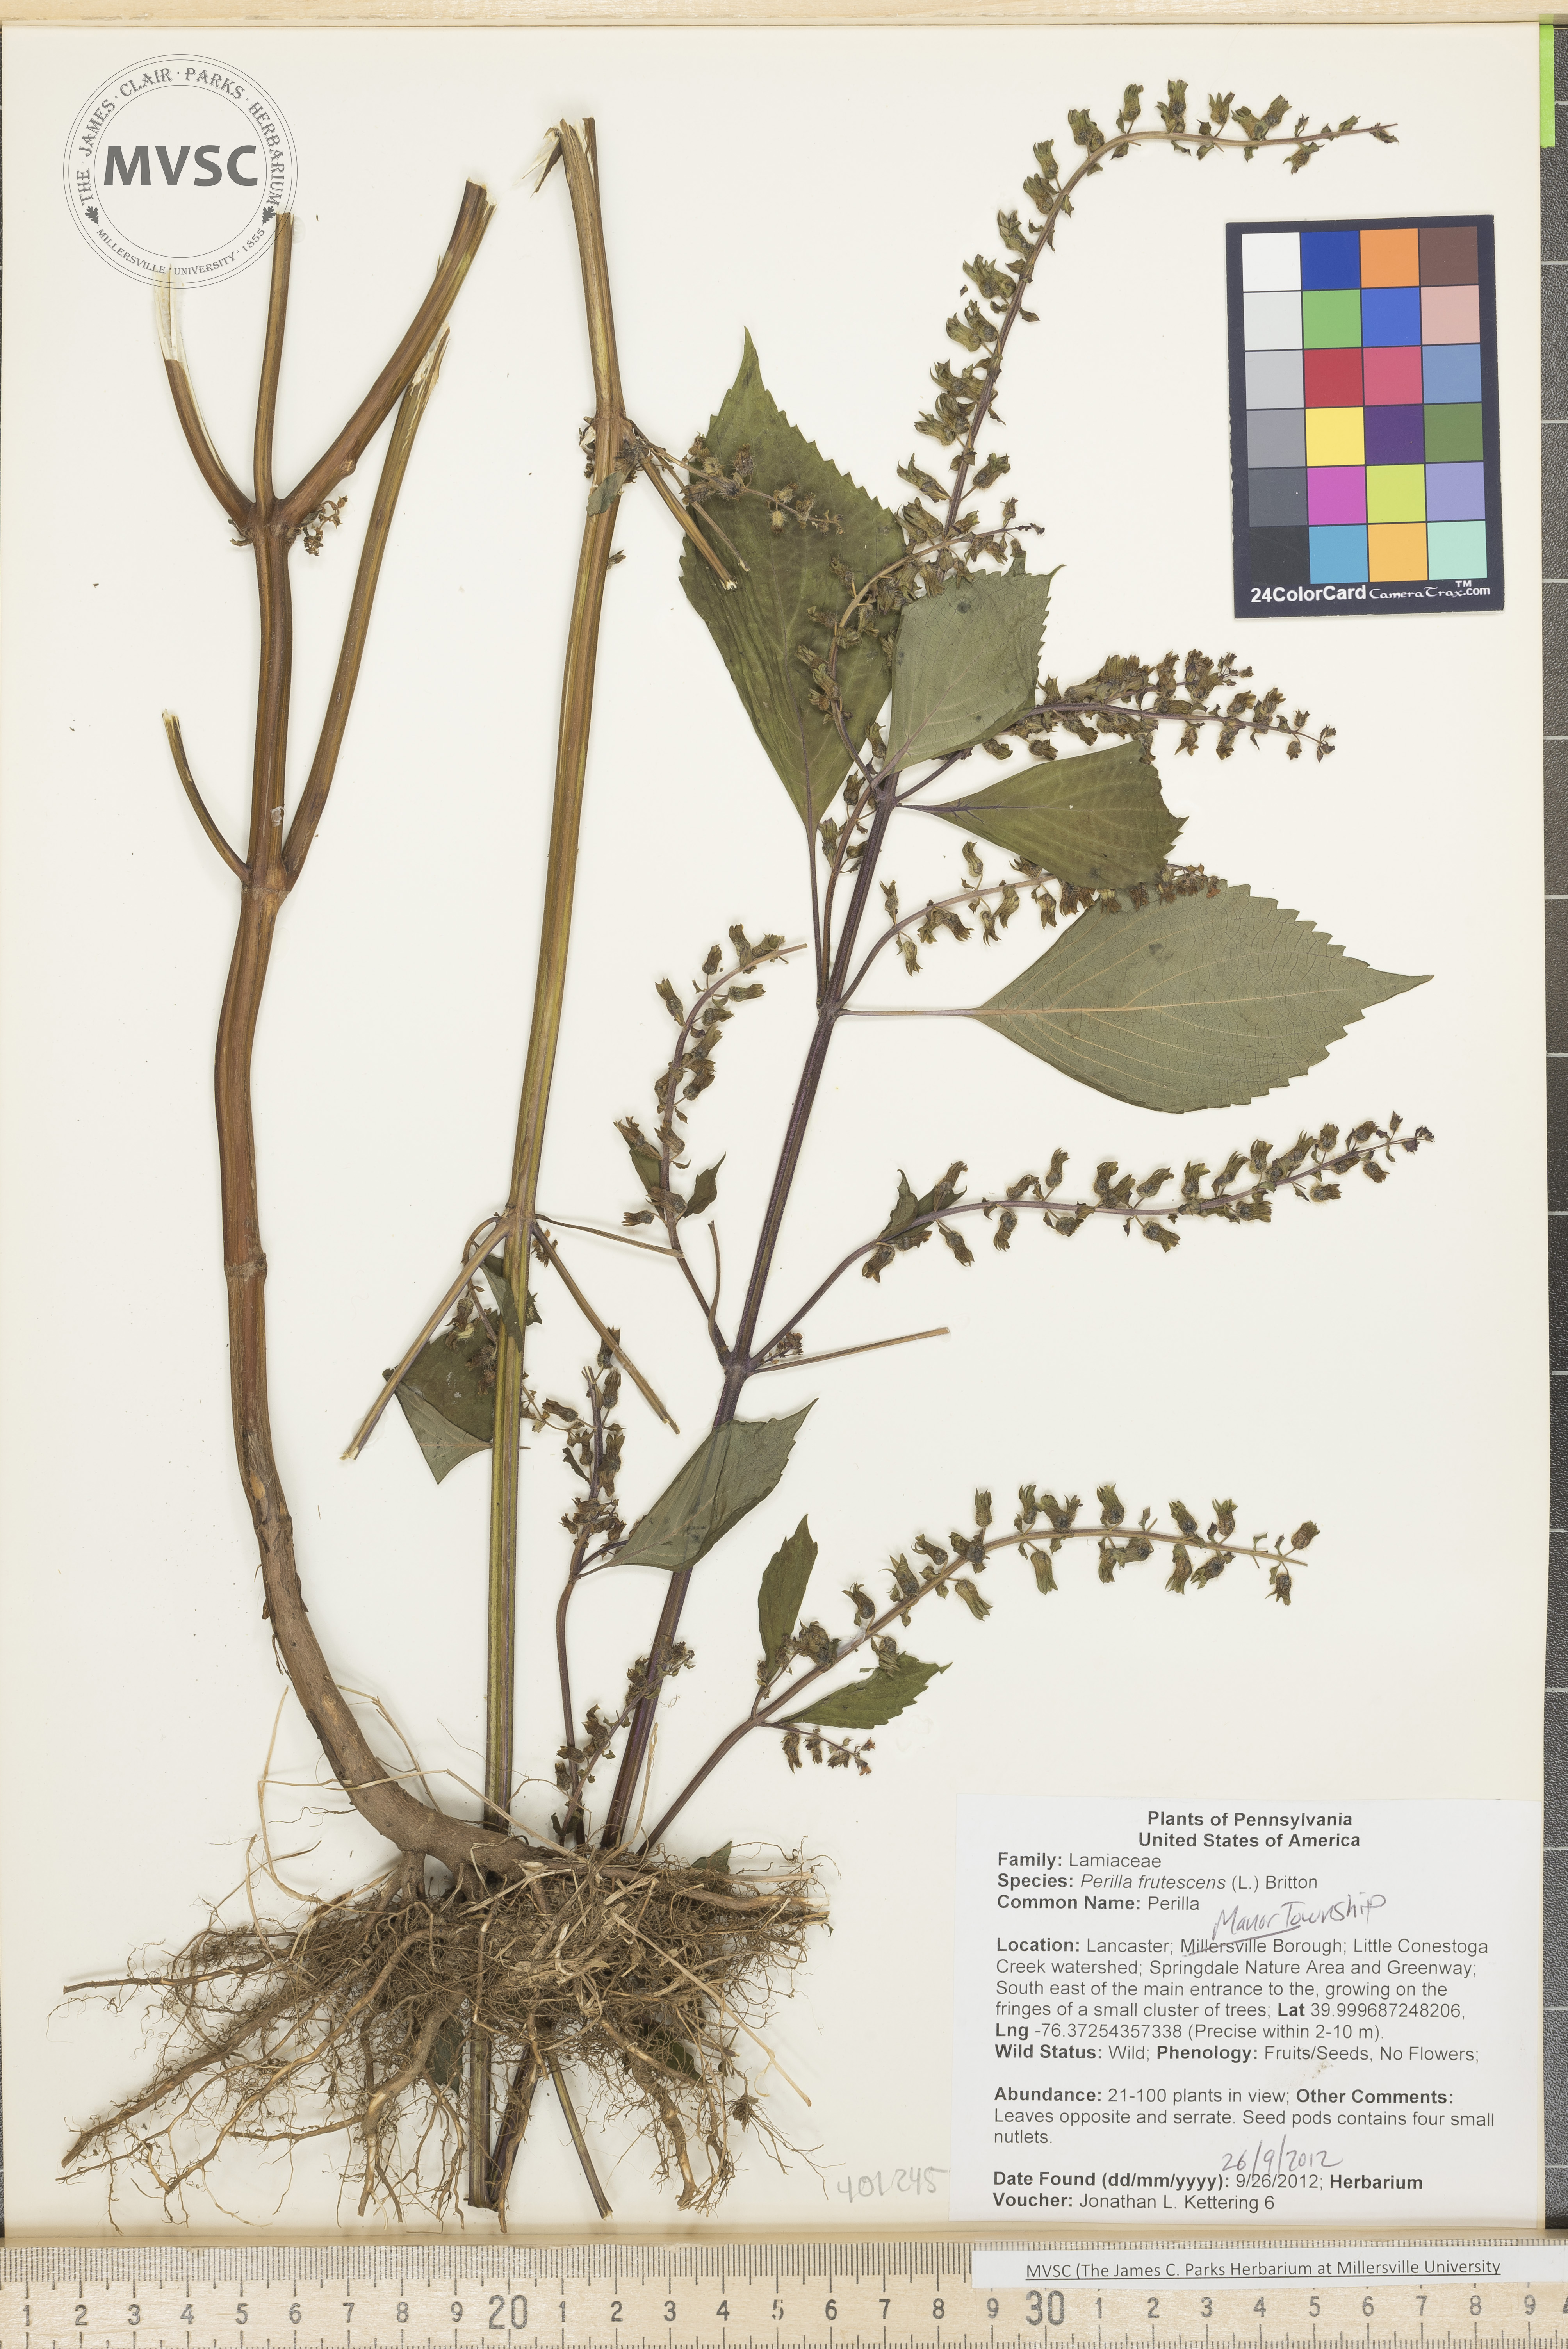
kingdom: Plantae
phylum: Tracheophyta
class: Magnoliopsida
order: Lamiales
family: Lamiaceae
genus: Perilla
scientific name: Perilla frutescens
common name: Perilla
